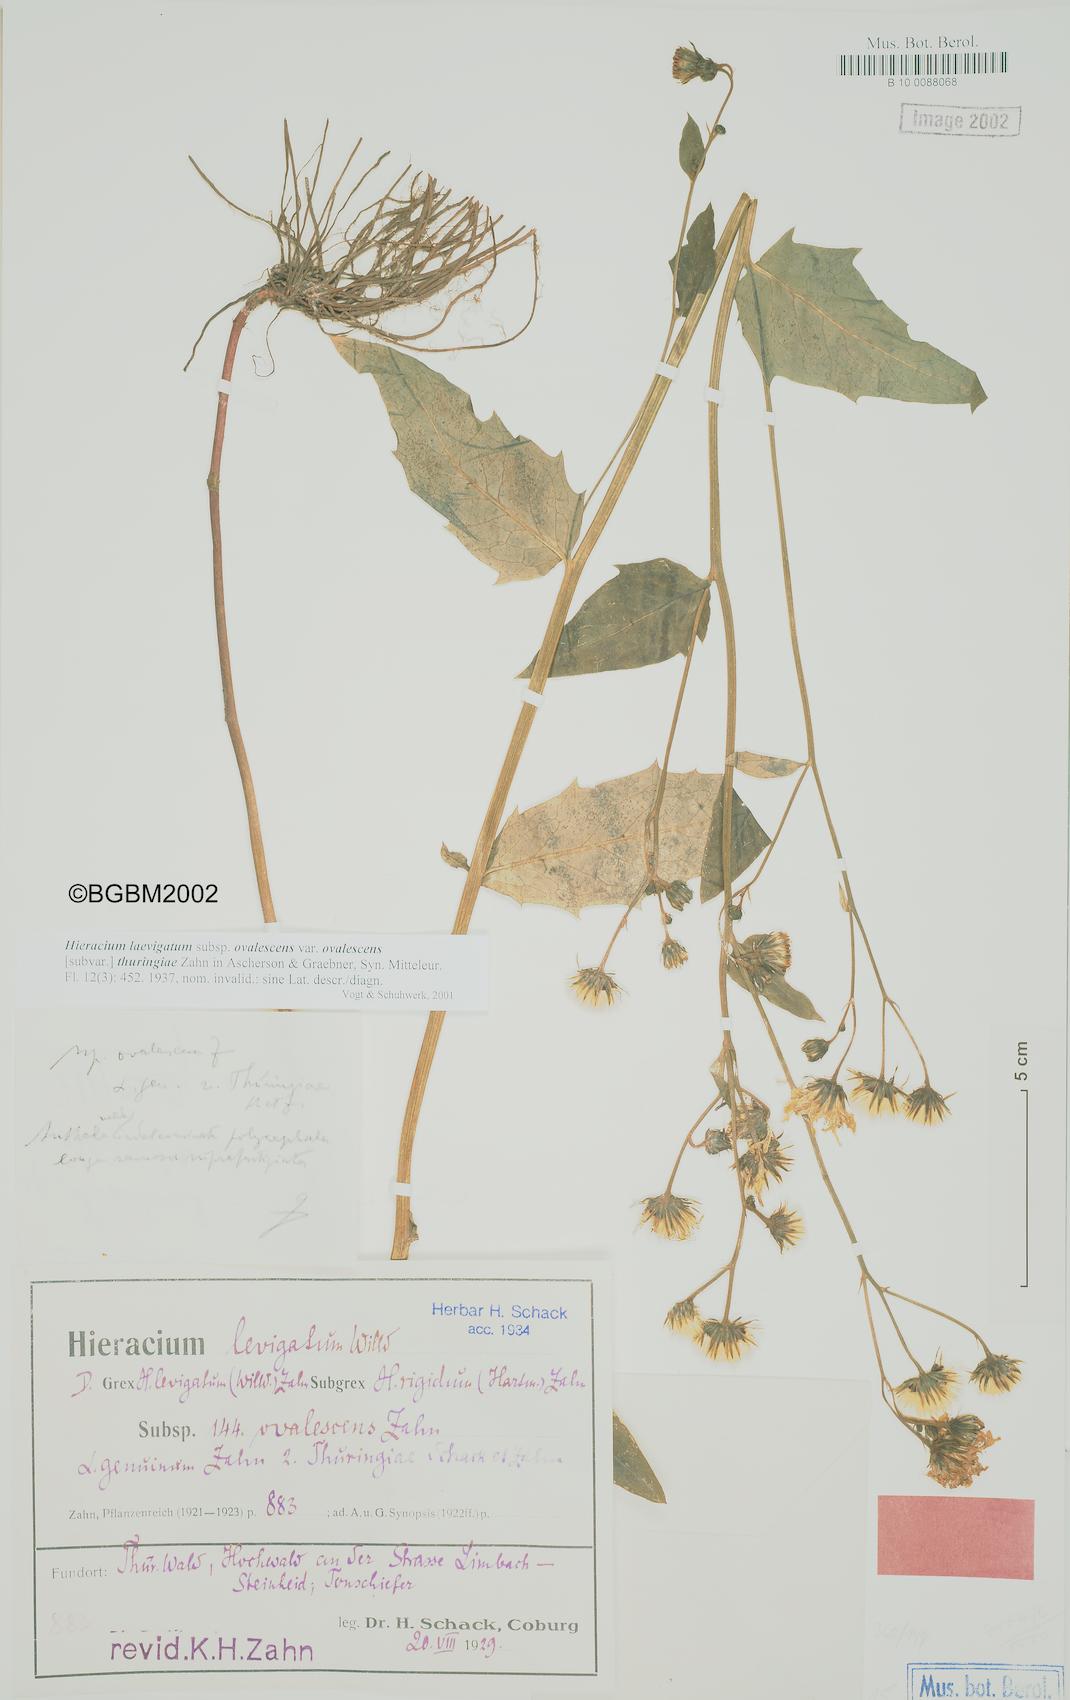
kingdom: Plantae
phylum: Tracheophyta
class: Magnoliopsida
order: Asterales
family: Asteraceae
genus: Hieracium
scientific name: Hieracium laevigatum
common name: Smooth hawkweed
